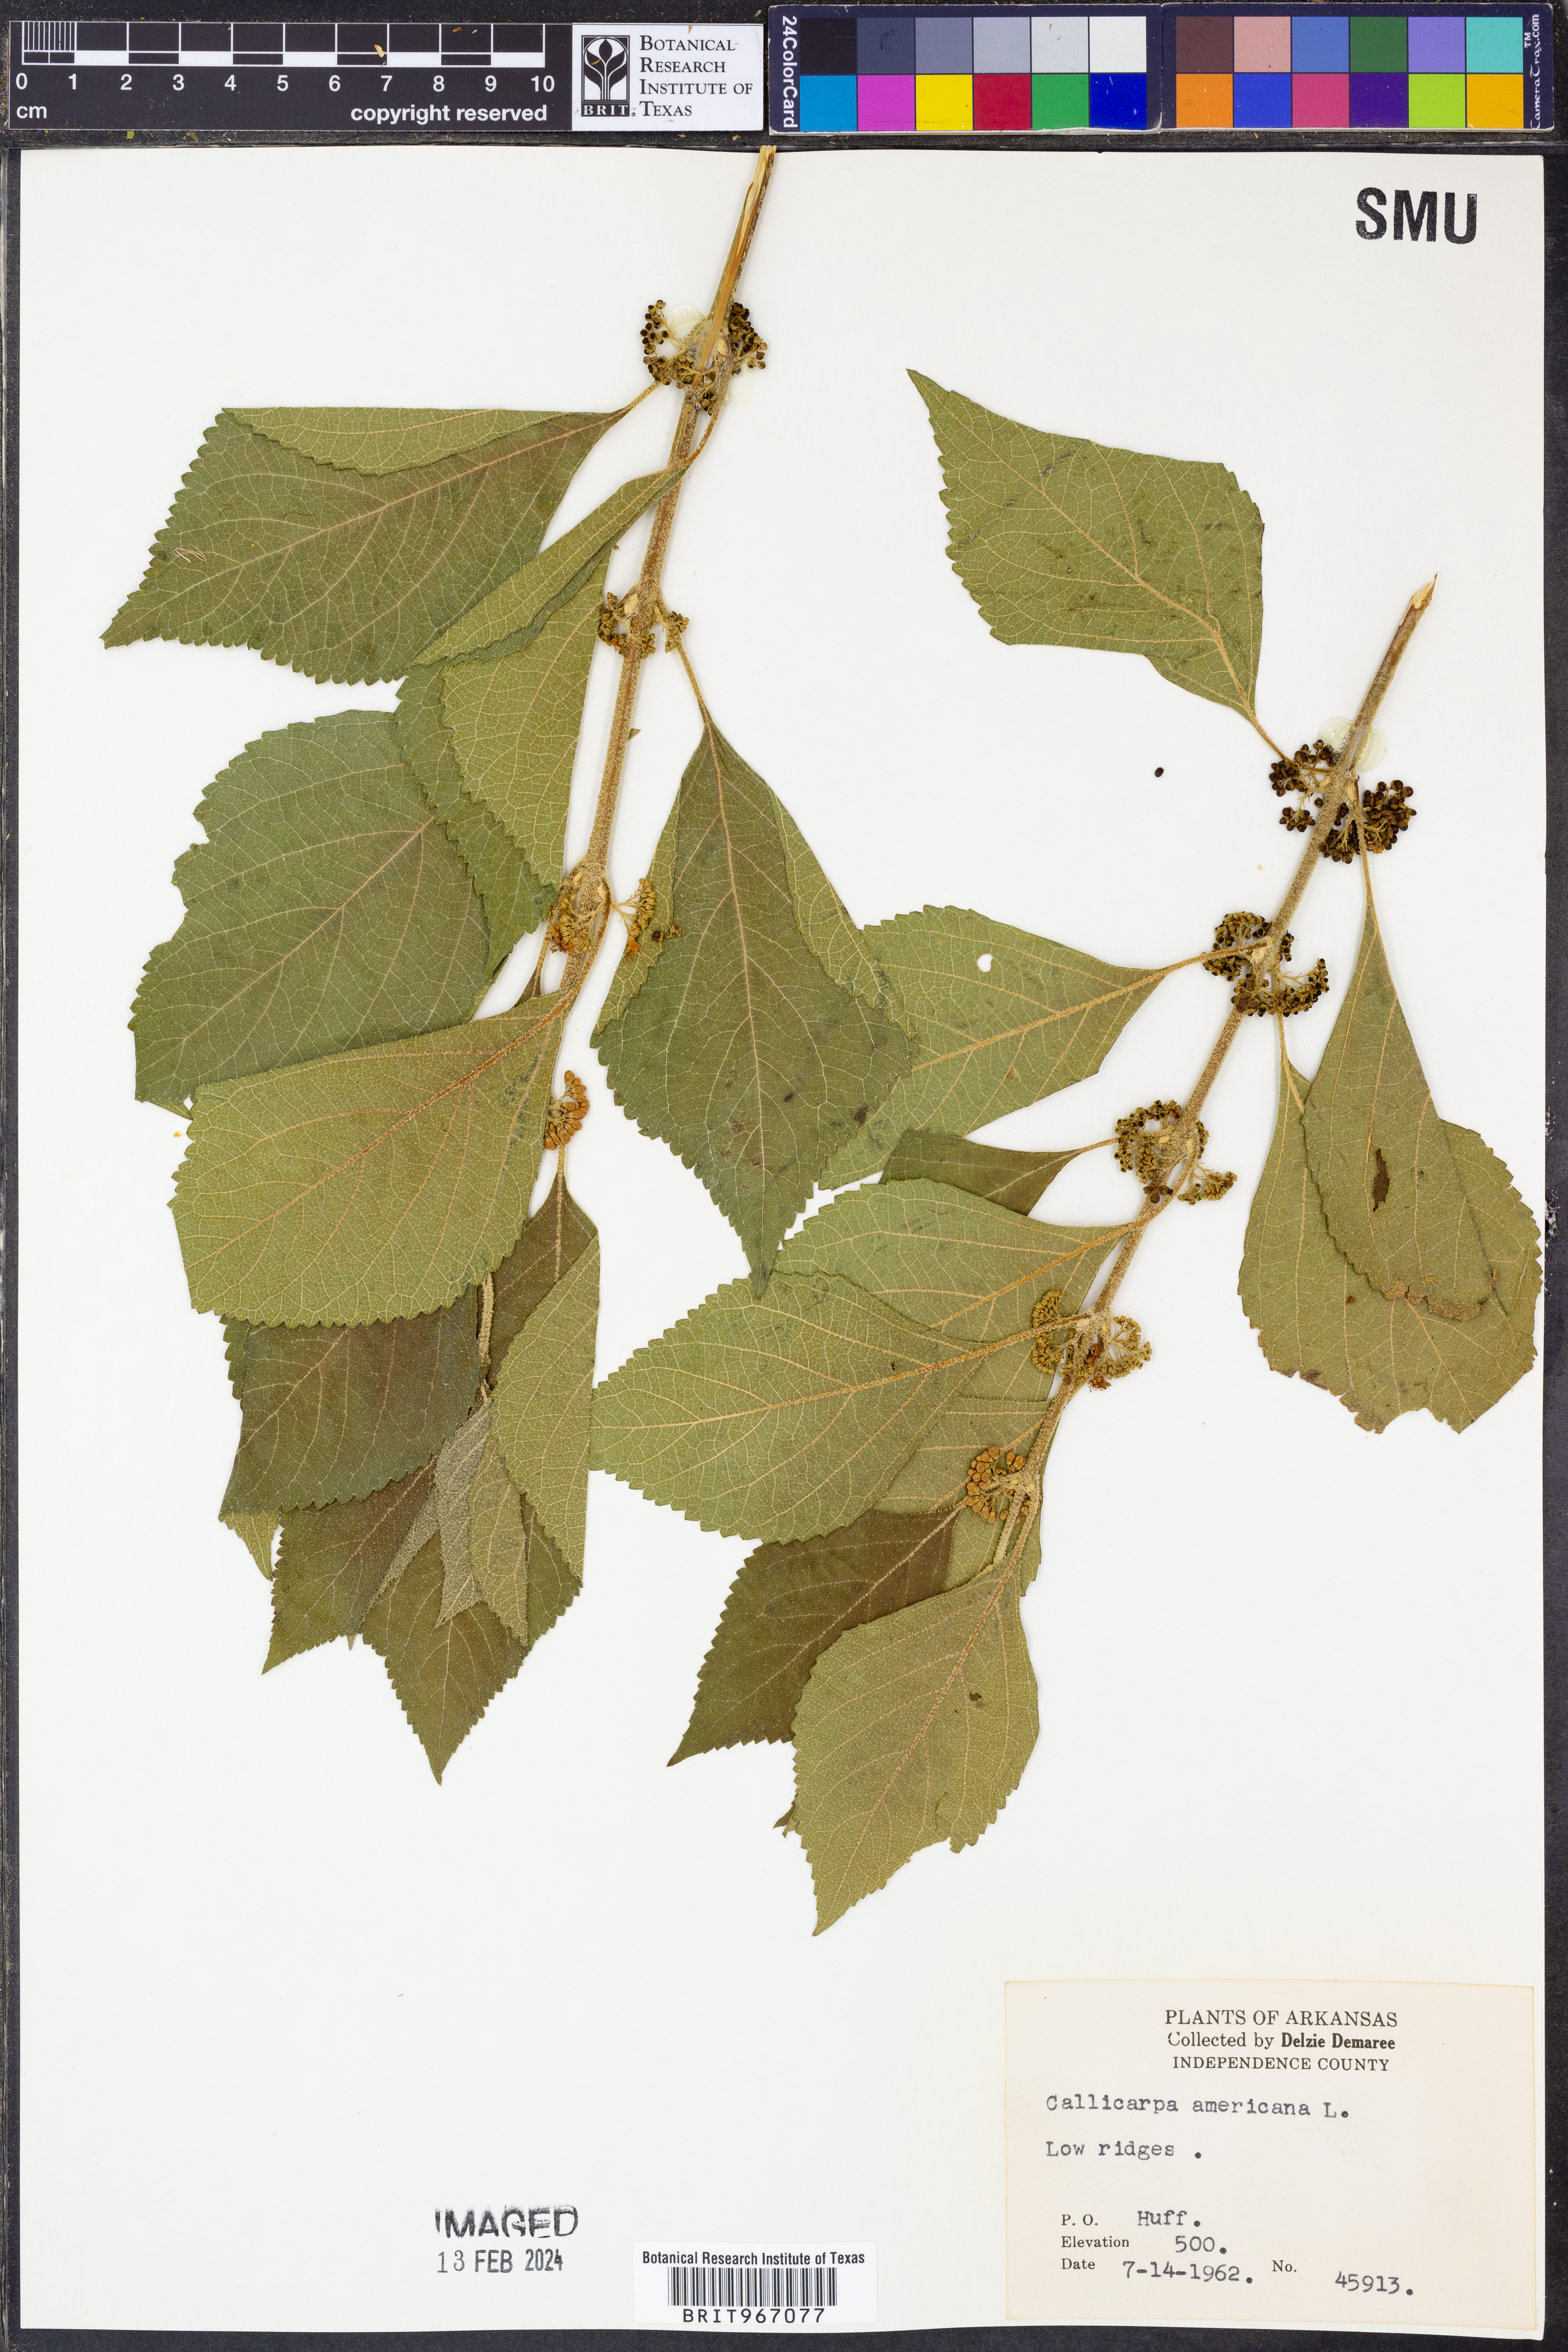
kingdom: Plantae
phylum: Tracheophyta
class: Magnoliopsida
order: Lamiales
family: Lamiaceae
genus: Callicarpa
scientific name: Callicarpa americana
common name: American beautyberry
